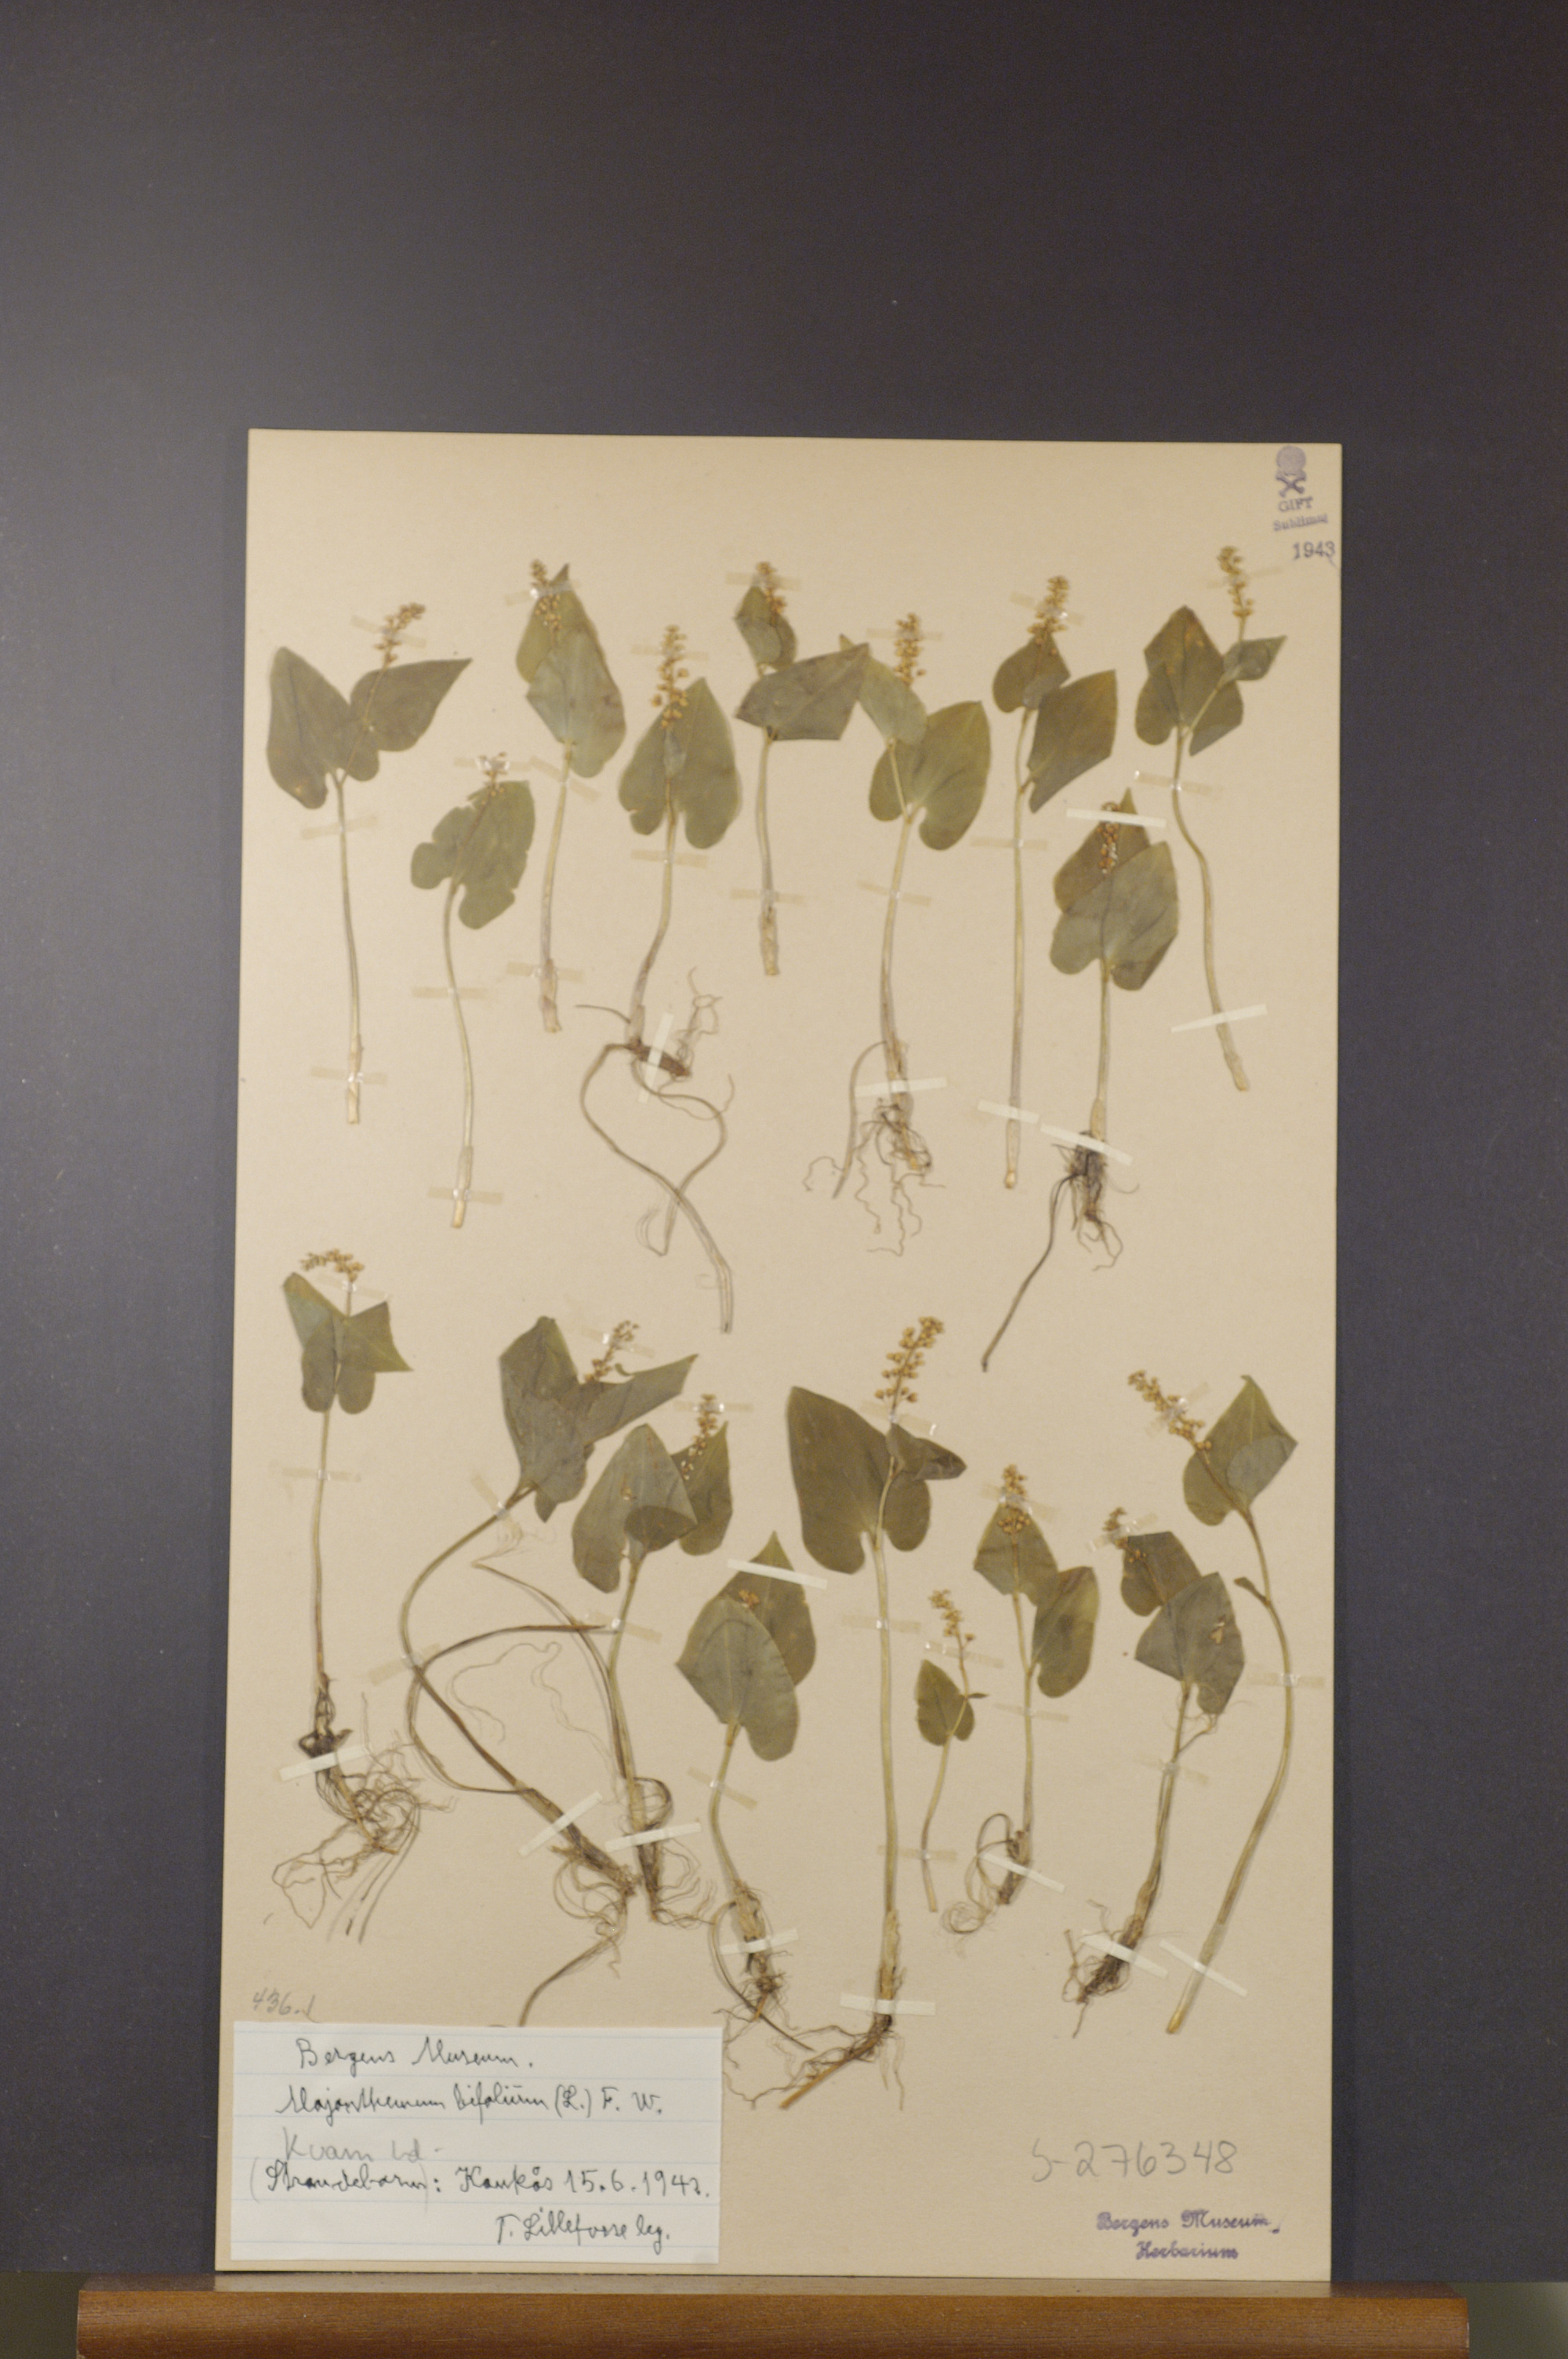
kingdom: Plantae
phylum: Tracheophyta
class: Liliopsida
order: Asparagales
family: Asparagaceae
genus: Maianthemum
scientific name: Maianthemum bifolium
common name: May lily
